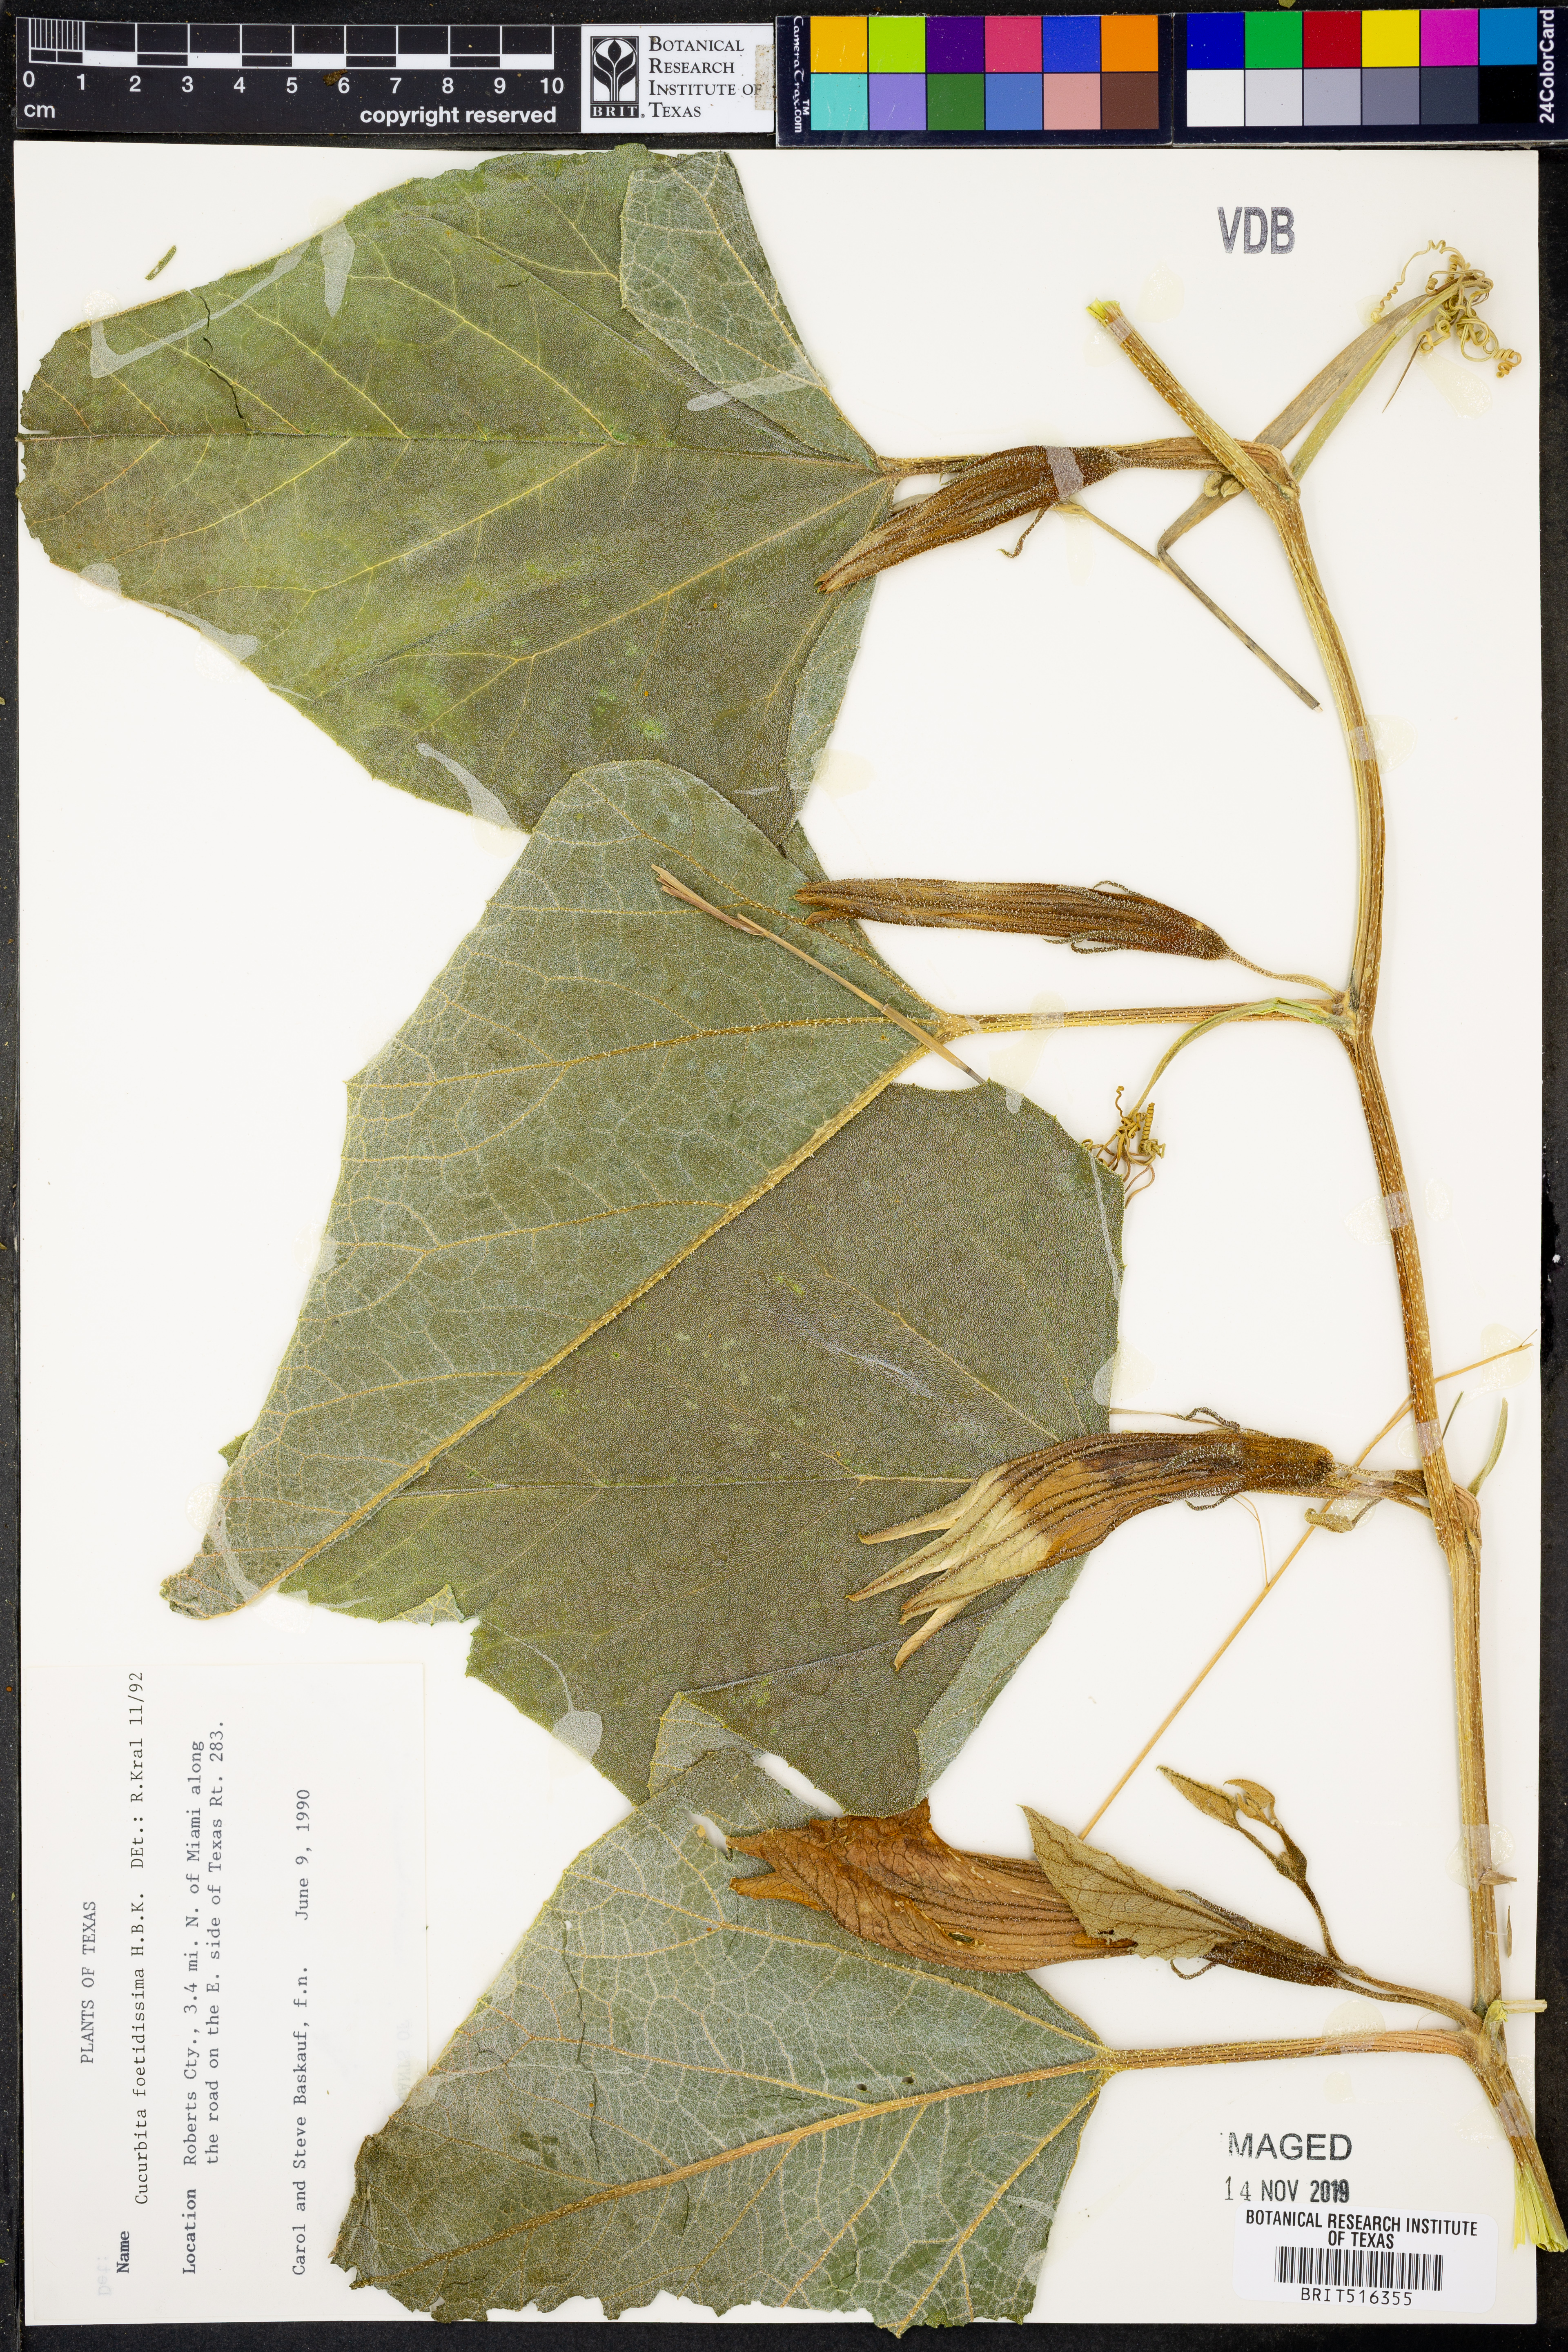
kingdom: Plantae
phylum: Tracheophyta
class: Magnoliopsida
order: Cucurbitales
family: Cucurbitaceae
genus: Cucurbita
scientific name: Cucurbita foetidissima
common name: Buffalo gourd
